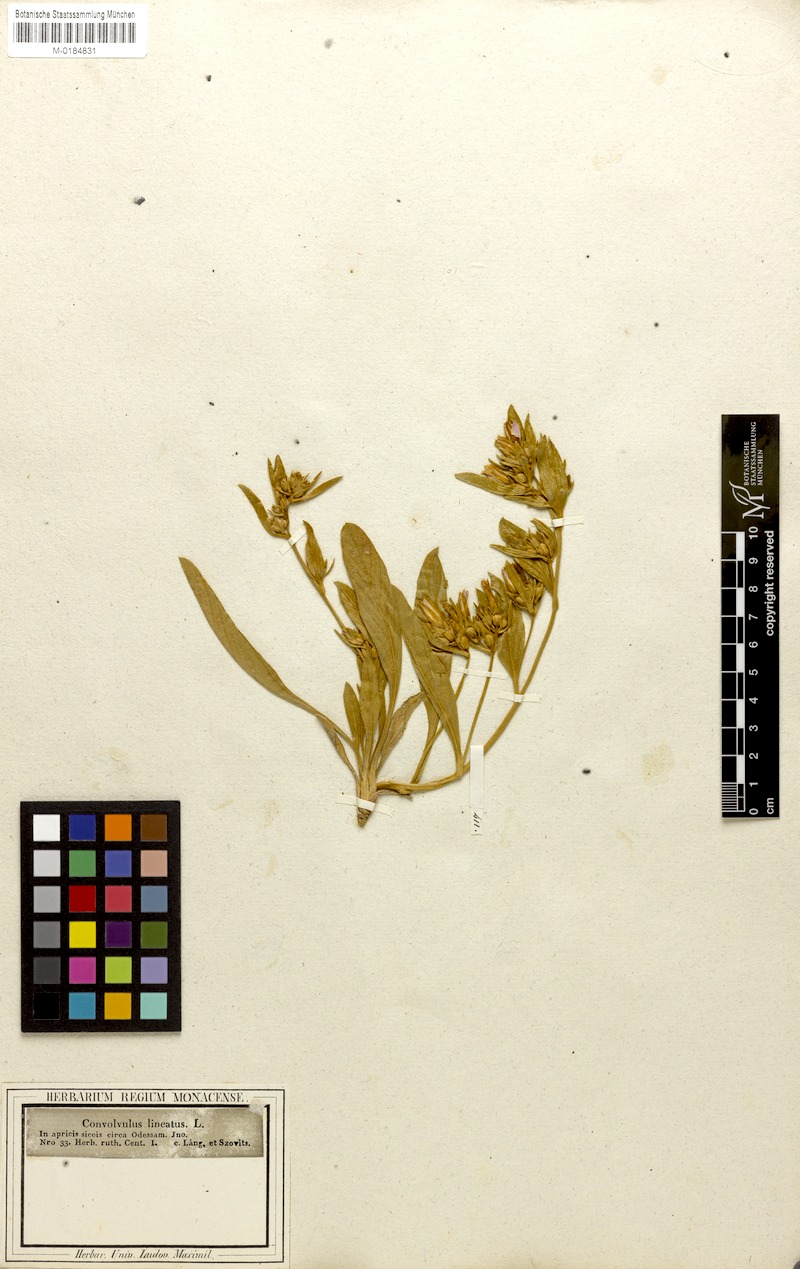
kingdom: Plantae
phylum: Tracheophyta
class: Magnoliopsida
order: Solanales
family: Convolvulaceae
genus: Convolvulus
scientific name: Convolvulus lineatus
